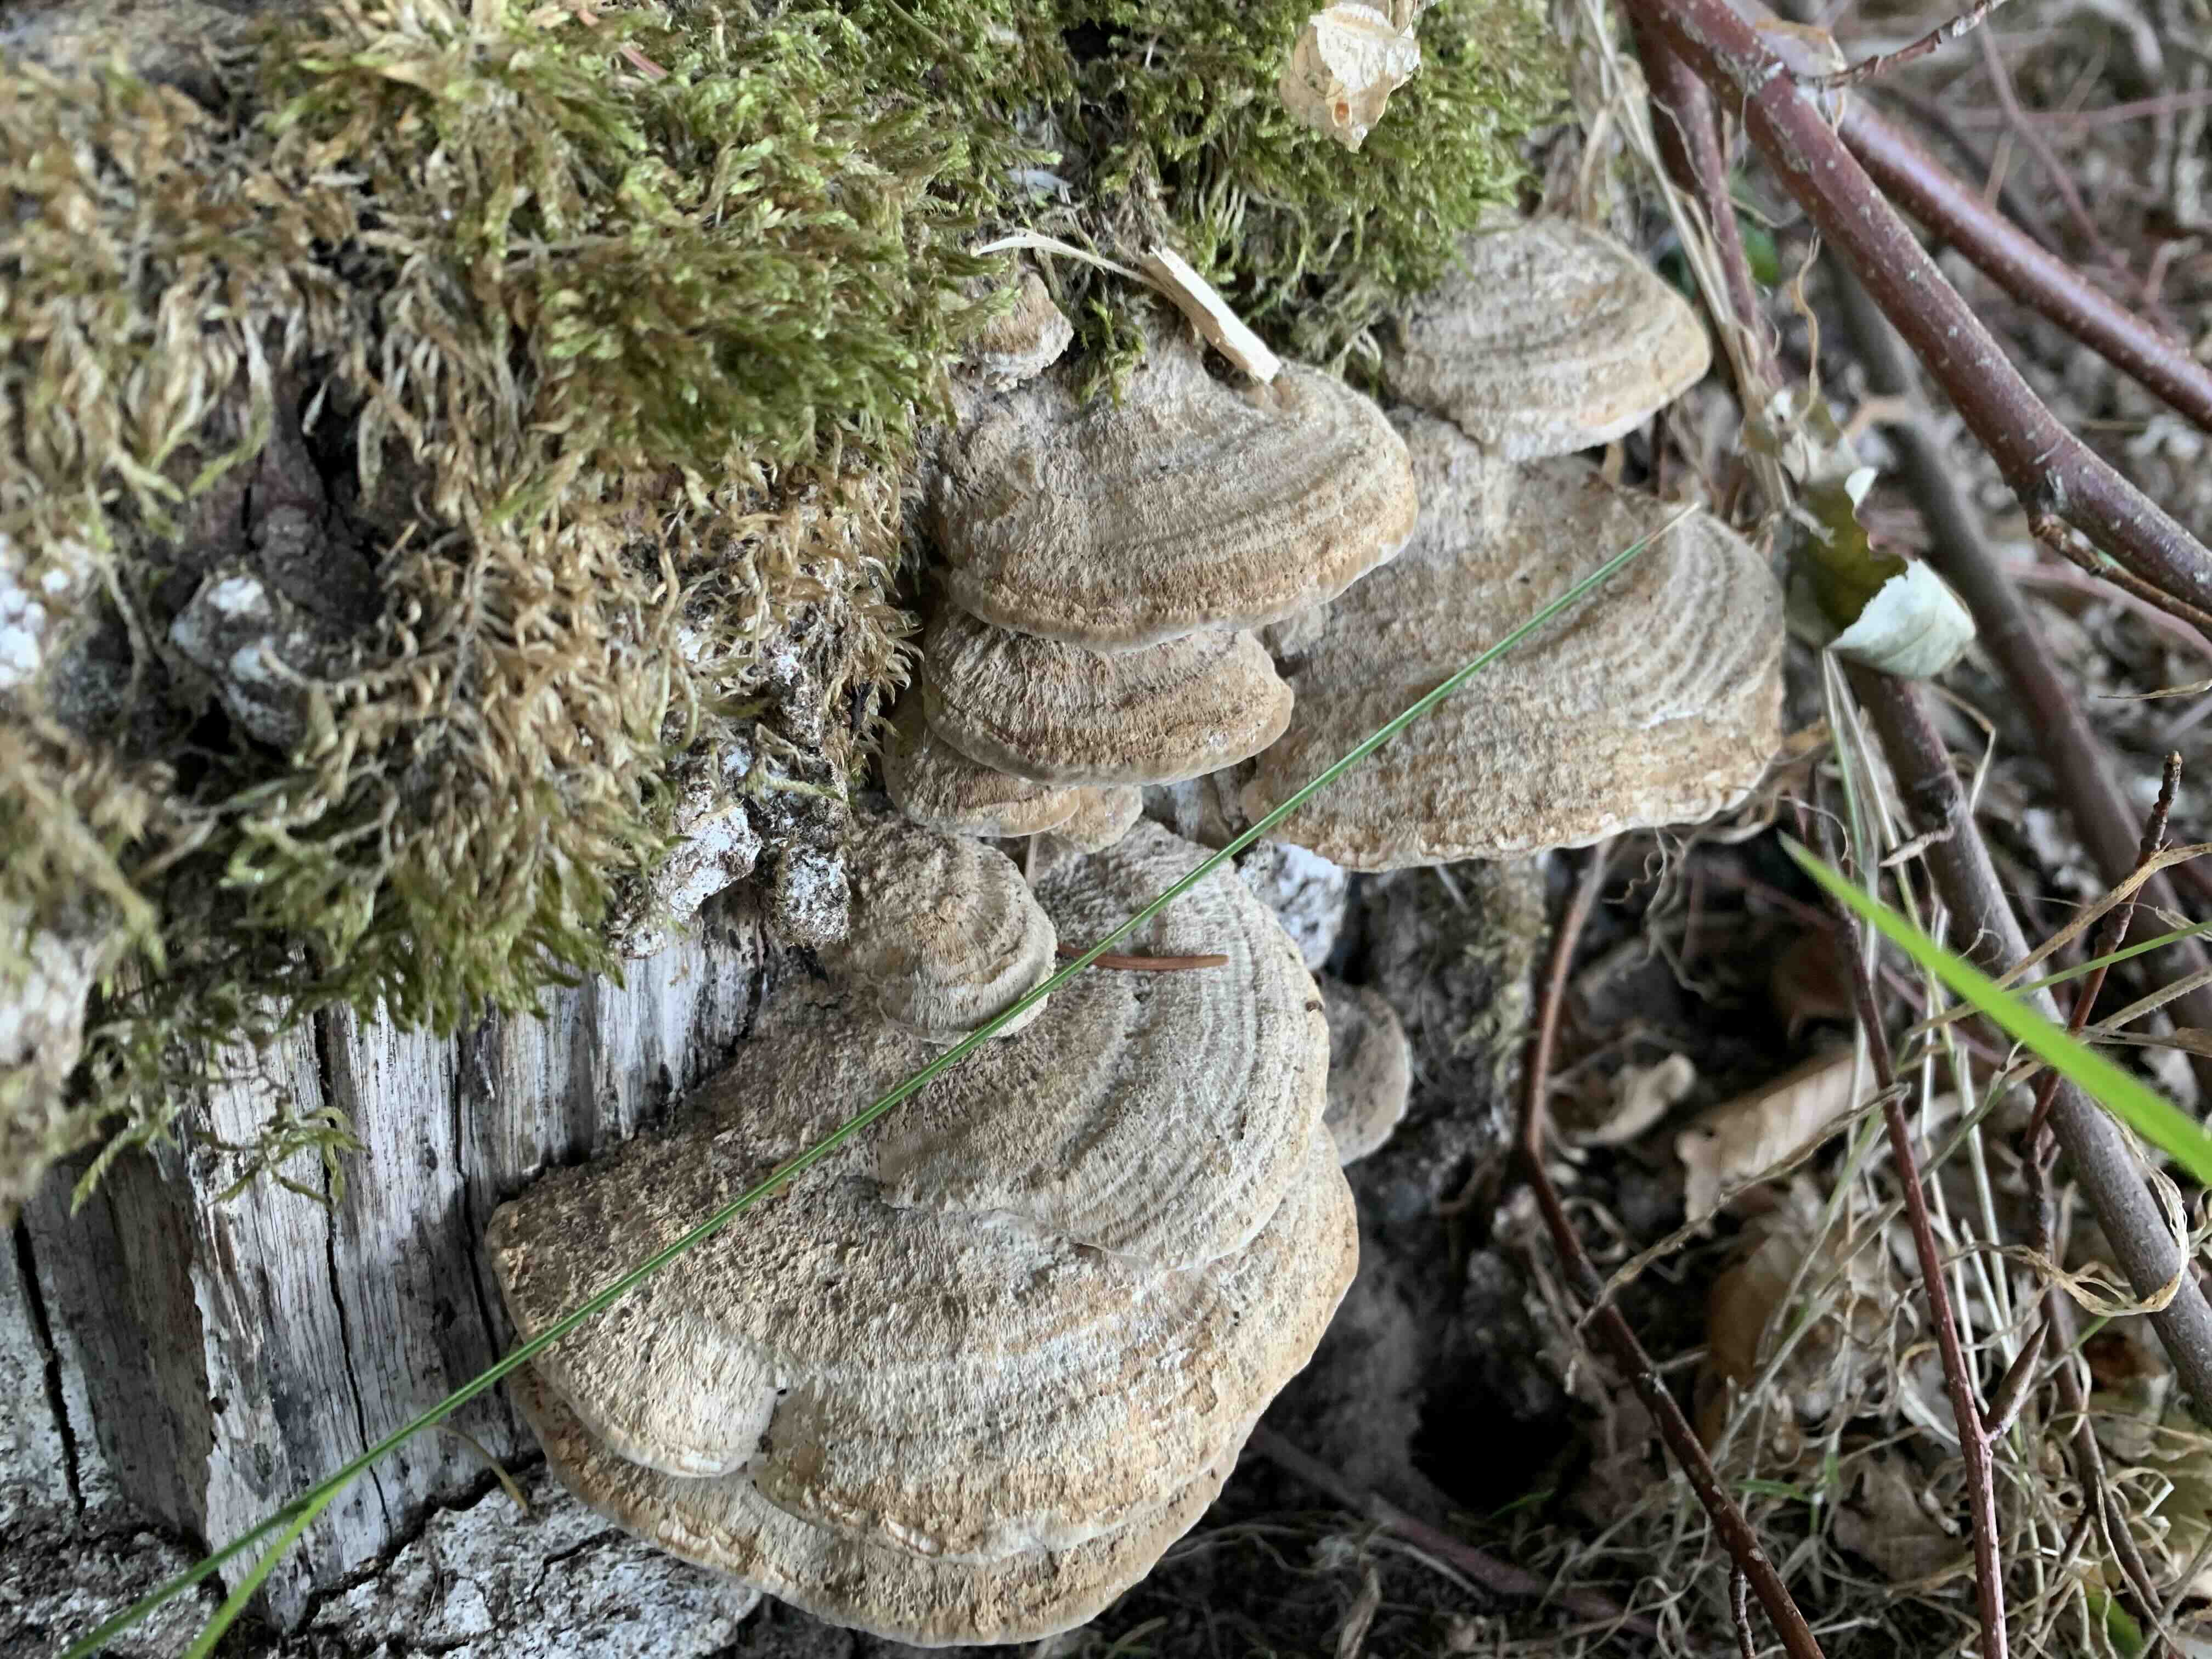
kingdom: Fungi
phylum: Basidiomycota
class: Agaricomycetes
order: Polyporales
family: Fomitopsidaceae
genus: Daedalea
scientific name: Daedalea quercina
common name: ege-labyrintsvamp
